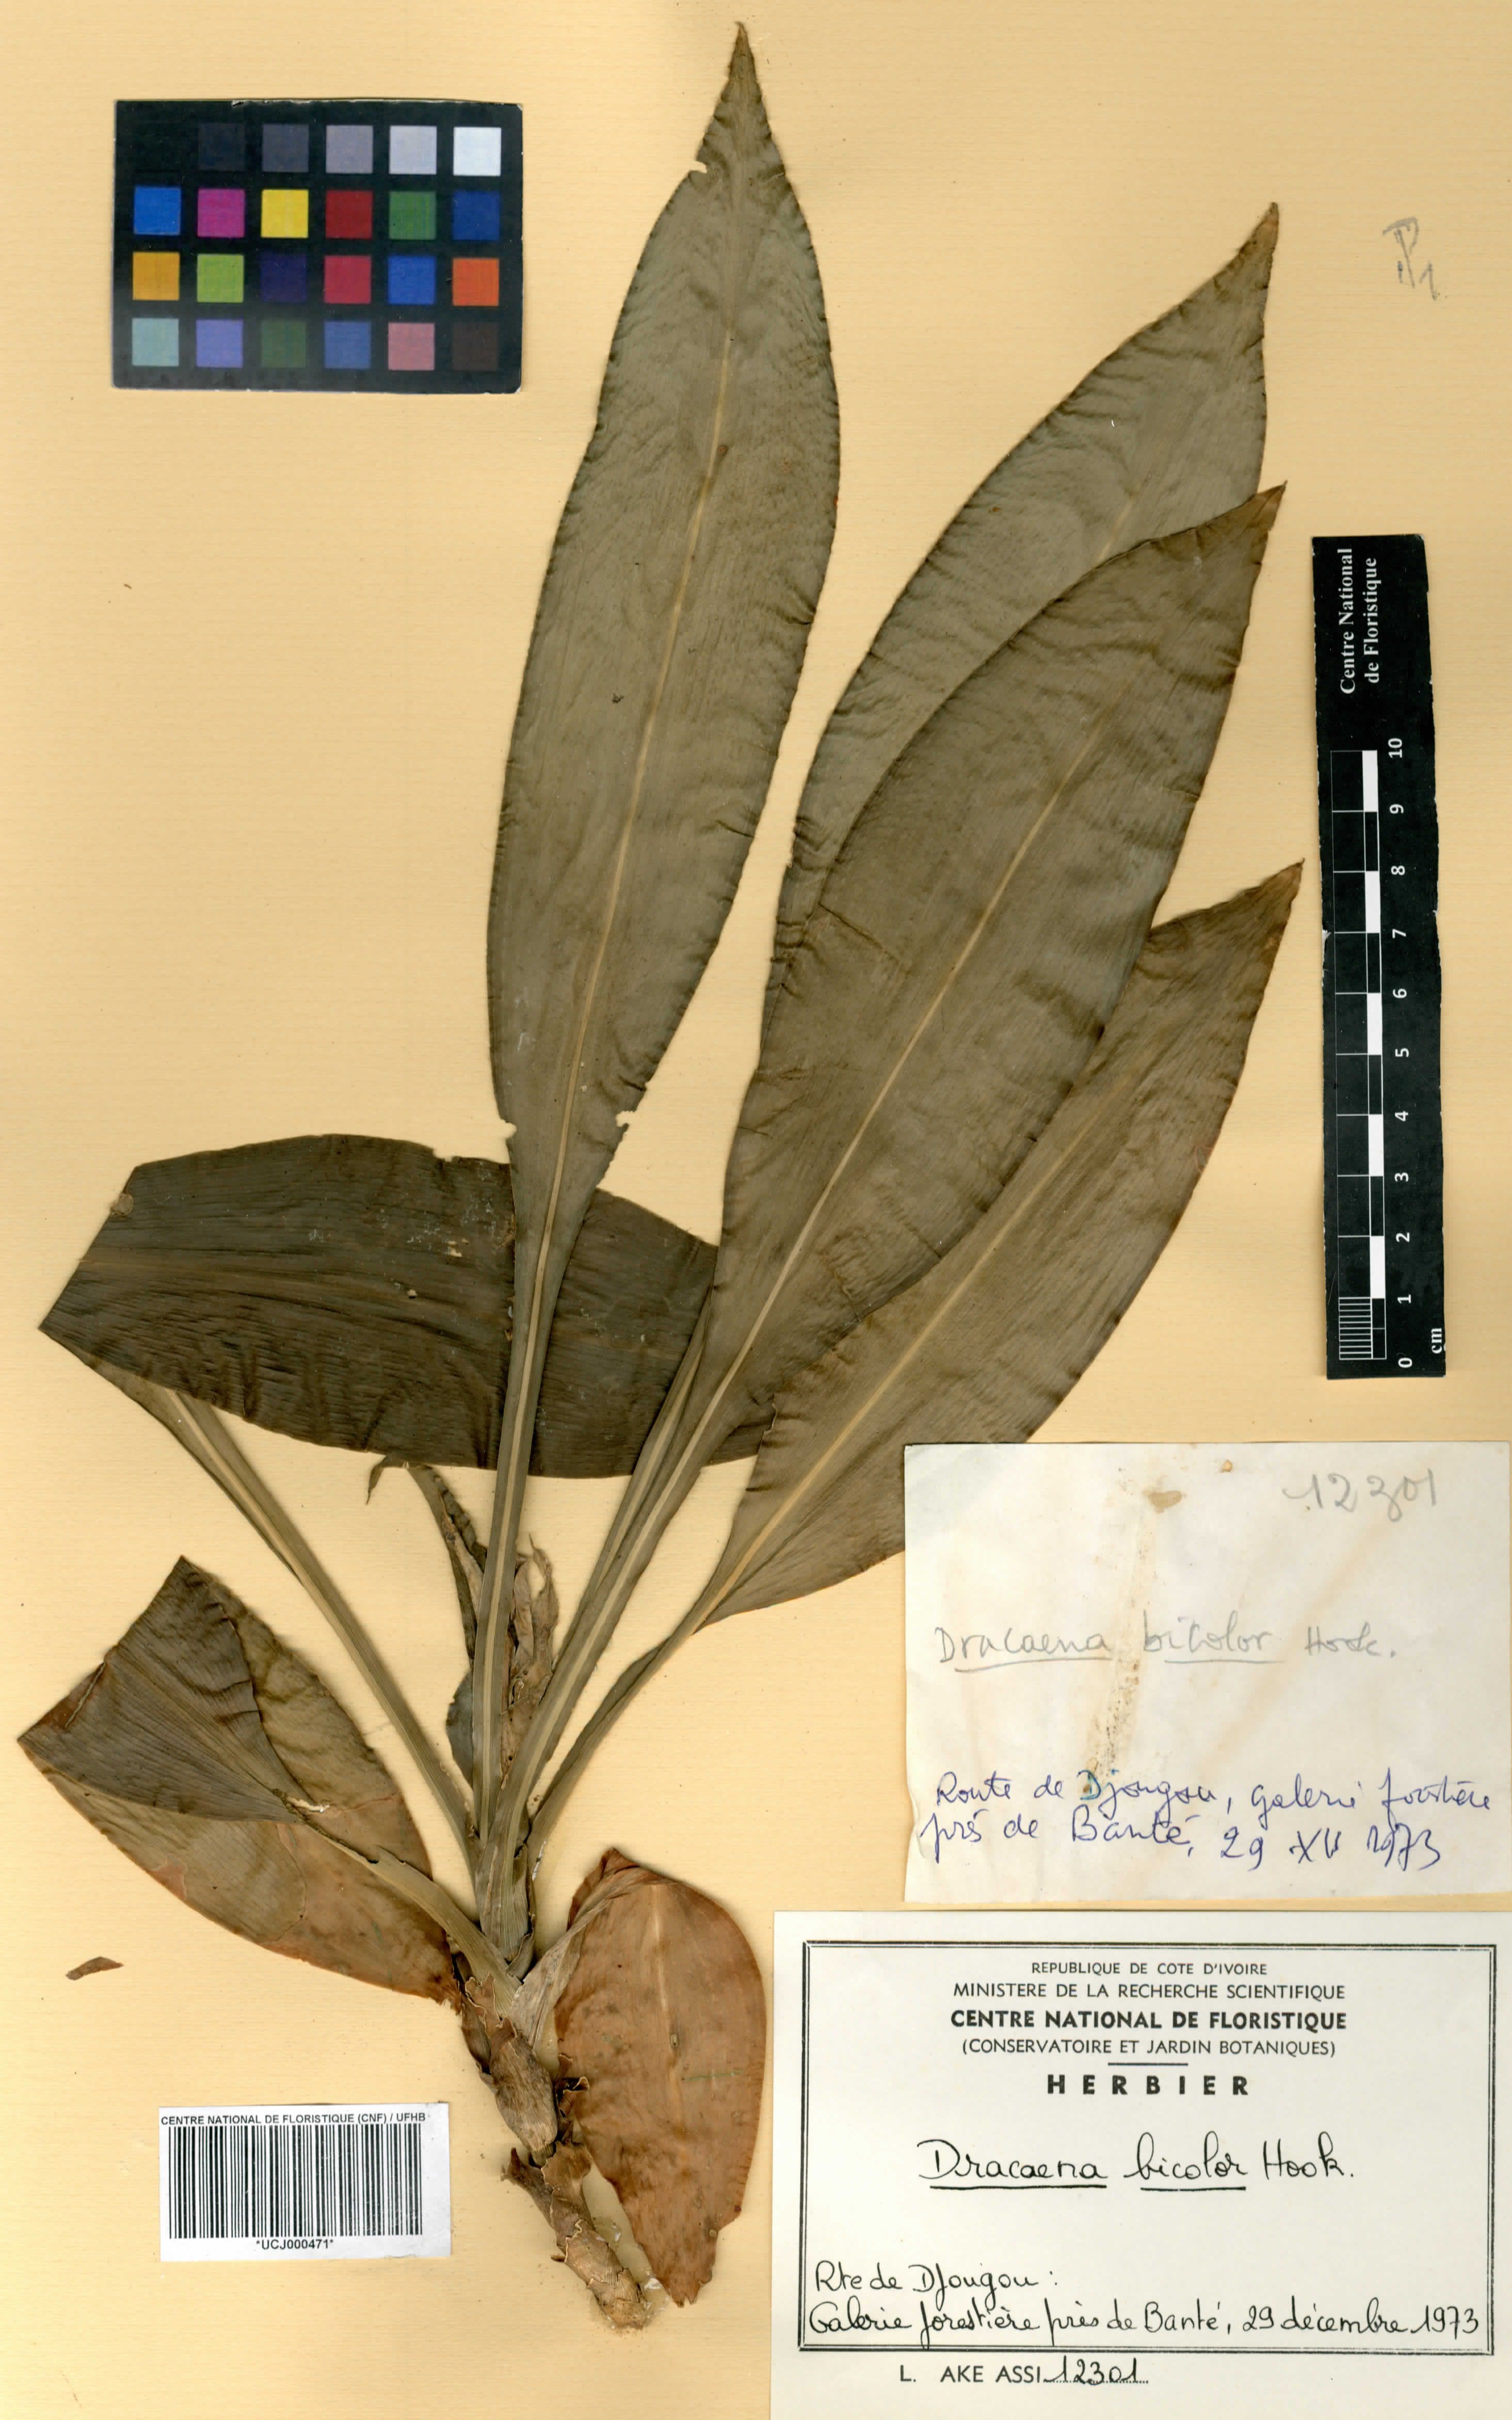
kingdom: Plantae
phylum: Tracheophyta
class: Liliopsida
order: Asparagales
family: Asparagaceae
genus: Dracaena
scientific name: Dracaena bicolor
